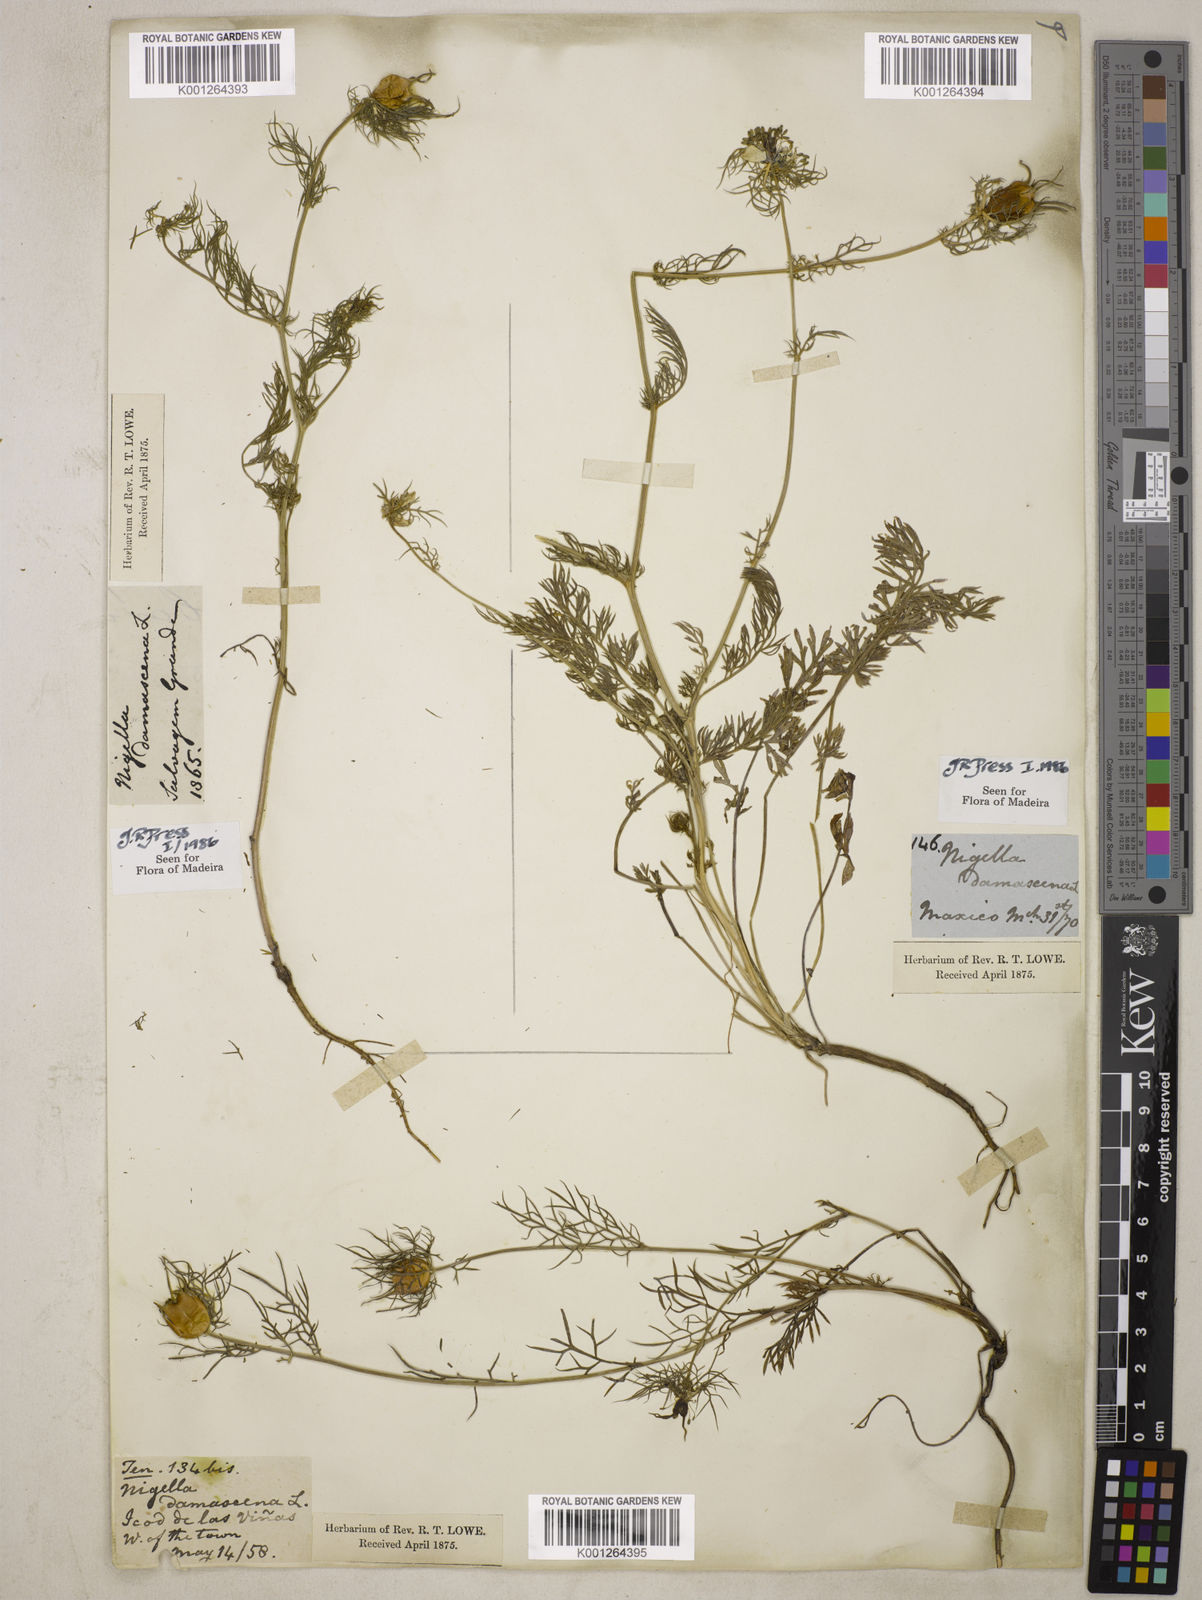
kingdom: Plantae
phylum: Tracheophyta
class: Magnoliopsida
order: Ranunculales
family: Ranunculaceae
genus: Nigella
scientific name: Nigella damascena
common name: Love-in-a-mist
